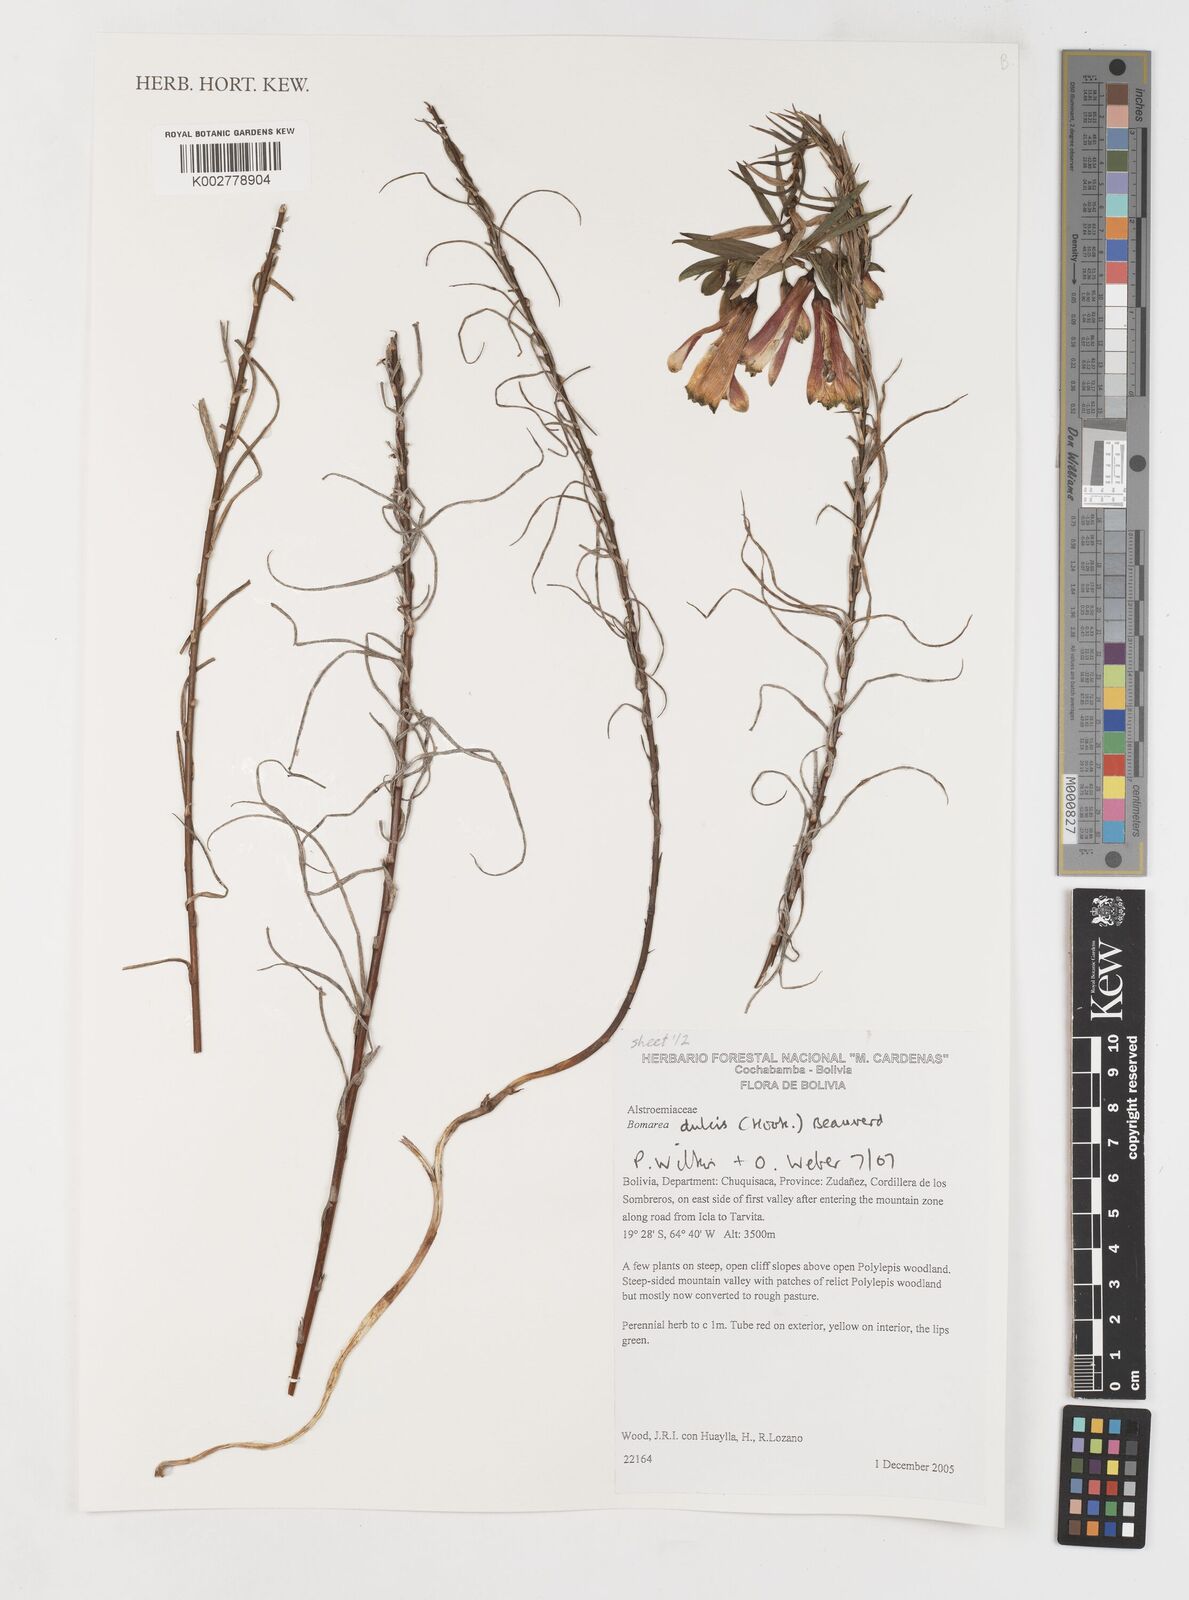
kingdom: Plantae
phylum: Tracheophyta
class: Liliopsida
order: Liliales
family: Alstroemeriaceae
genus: Bomarea
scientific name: Bomarea dulcis
